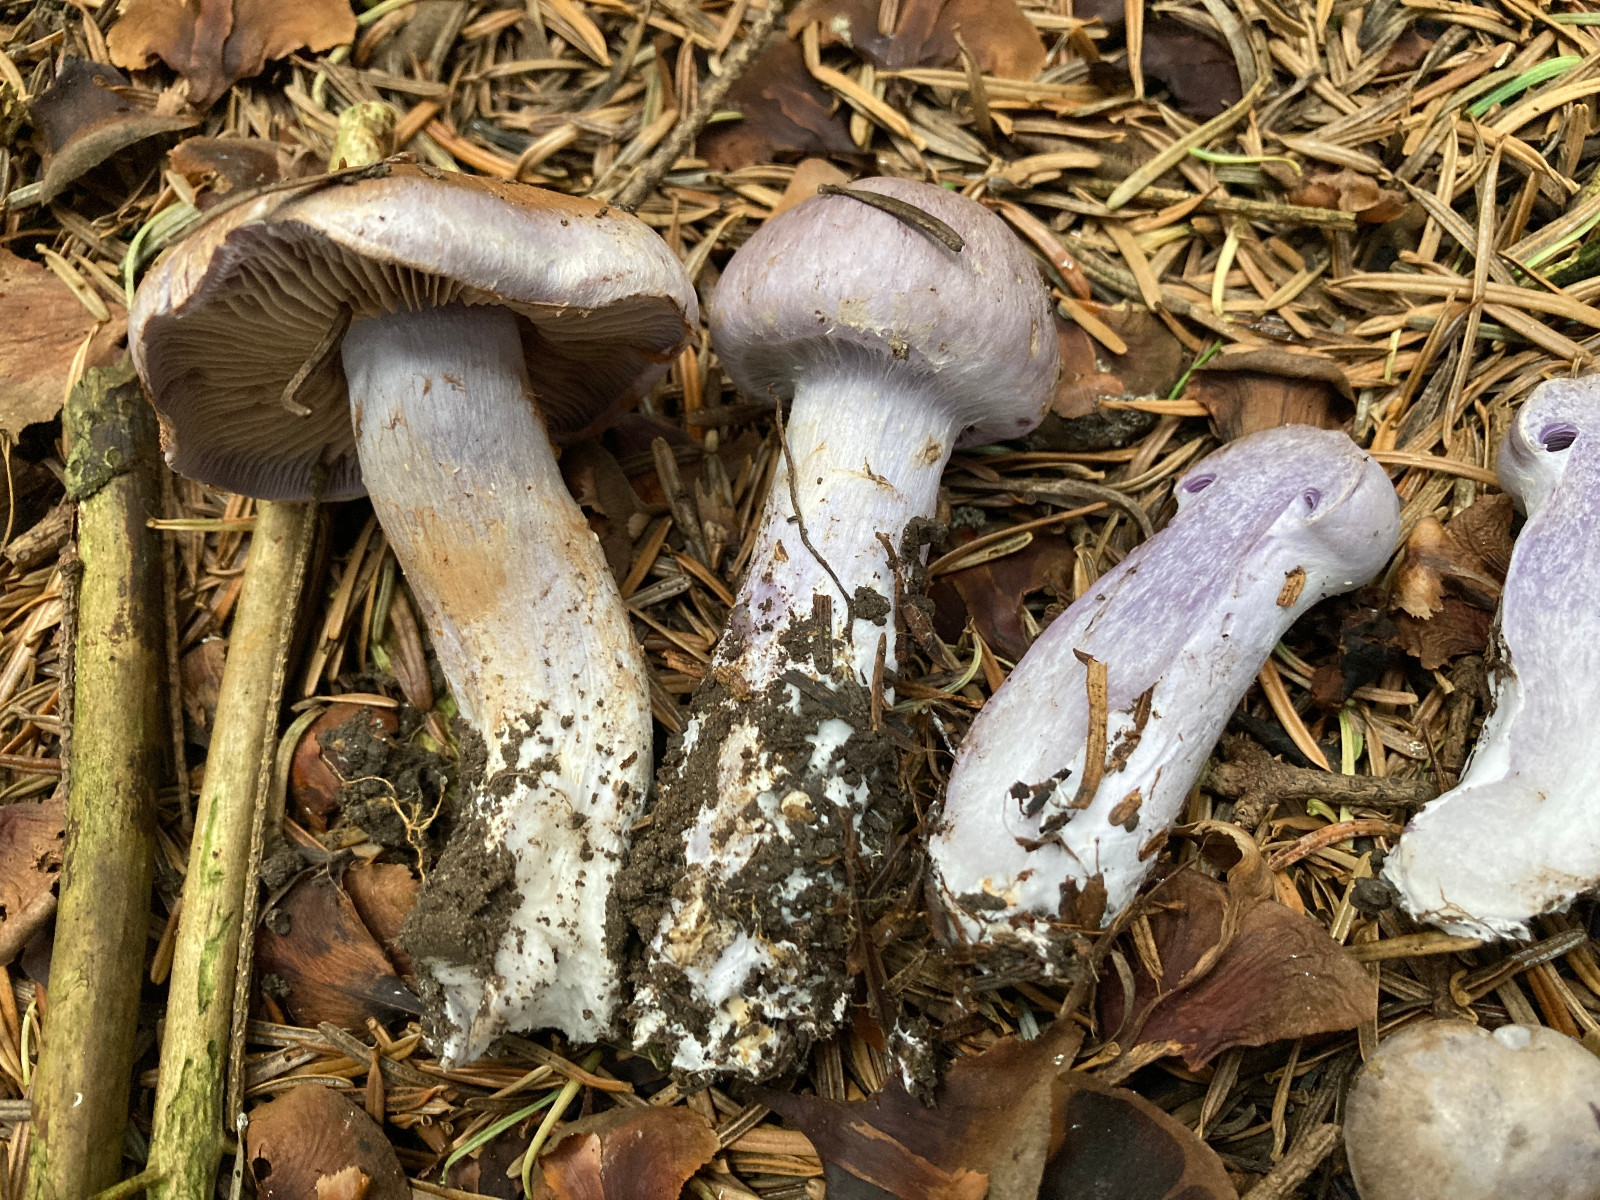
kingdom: Fungi
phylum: Basidiomycota
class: Agaricomycetes
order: Agaricales
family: Cortinariaceae
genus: Phlegmacium
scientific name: Phlegmacium
